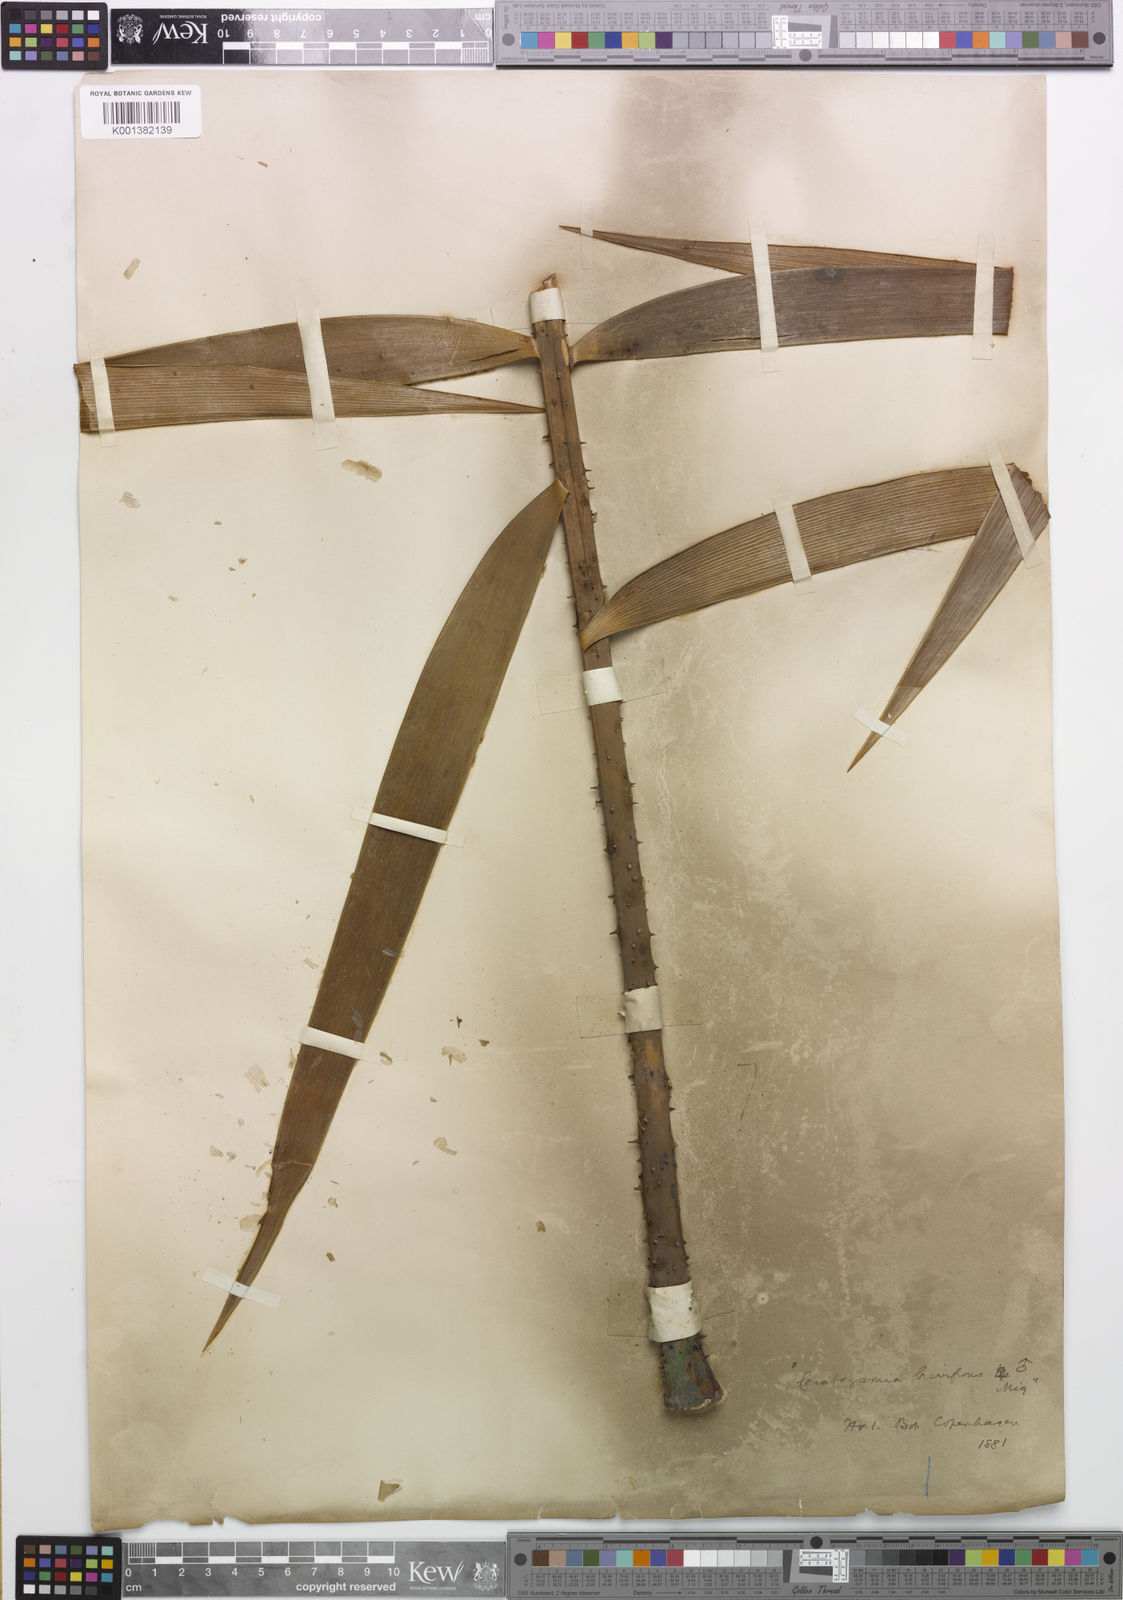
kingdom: Plantae
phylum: Tracheophyta
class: Cycadopsida
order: Cycadales
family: Zamiaceae
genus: Ceratozamia
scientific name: Ceratozamia mexicana
